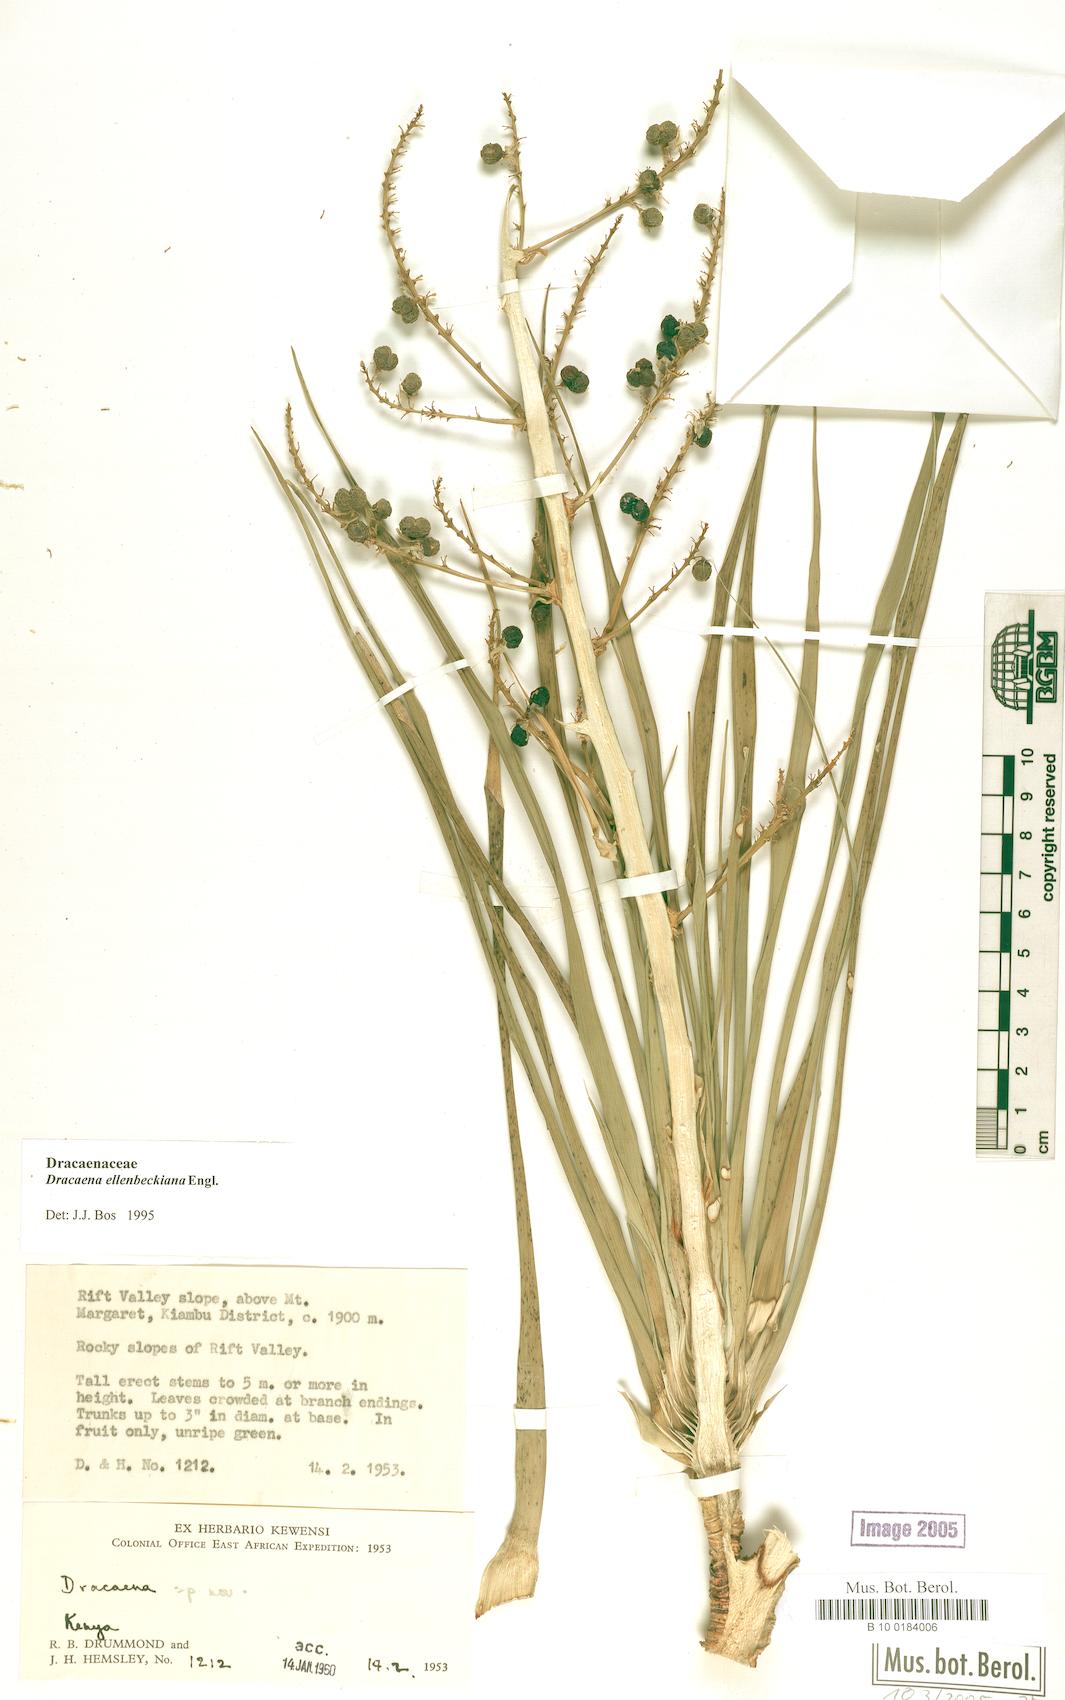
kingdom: Plantae
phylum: Tracheophyta
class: Liliopsida
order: Asparagales
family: Asparagaceae
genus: Dracaena
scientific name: Dracaena ellenbeckiana
